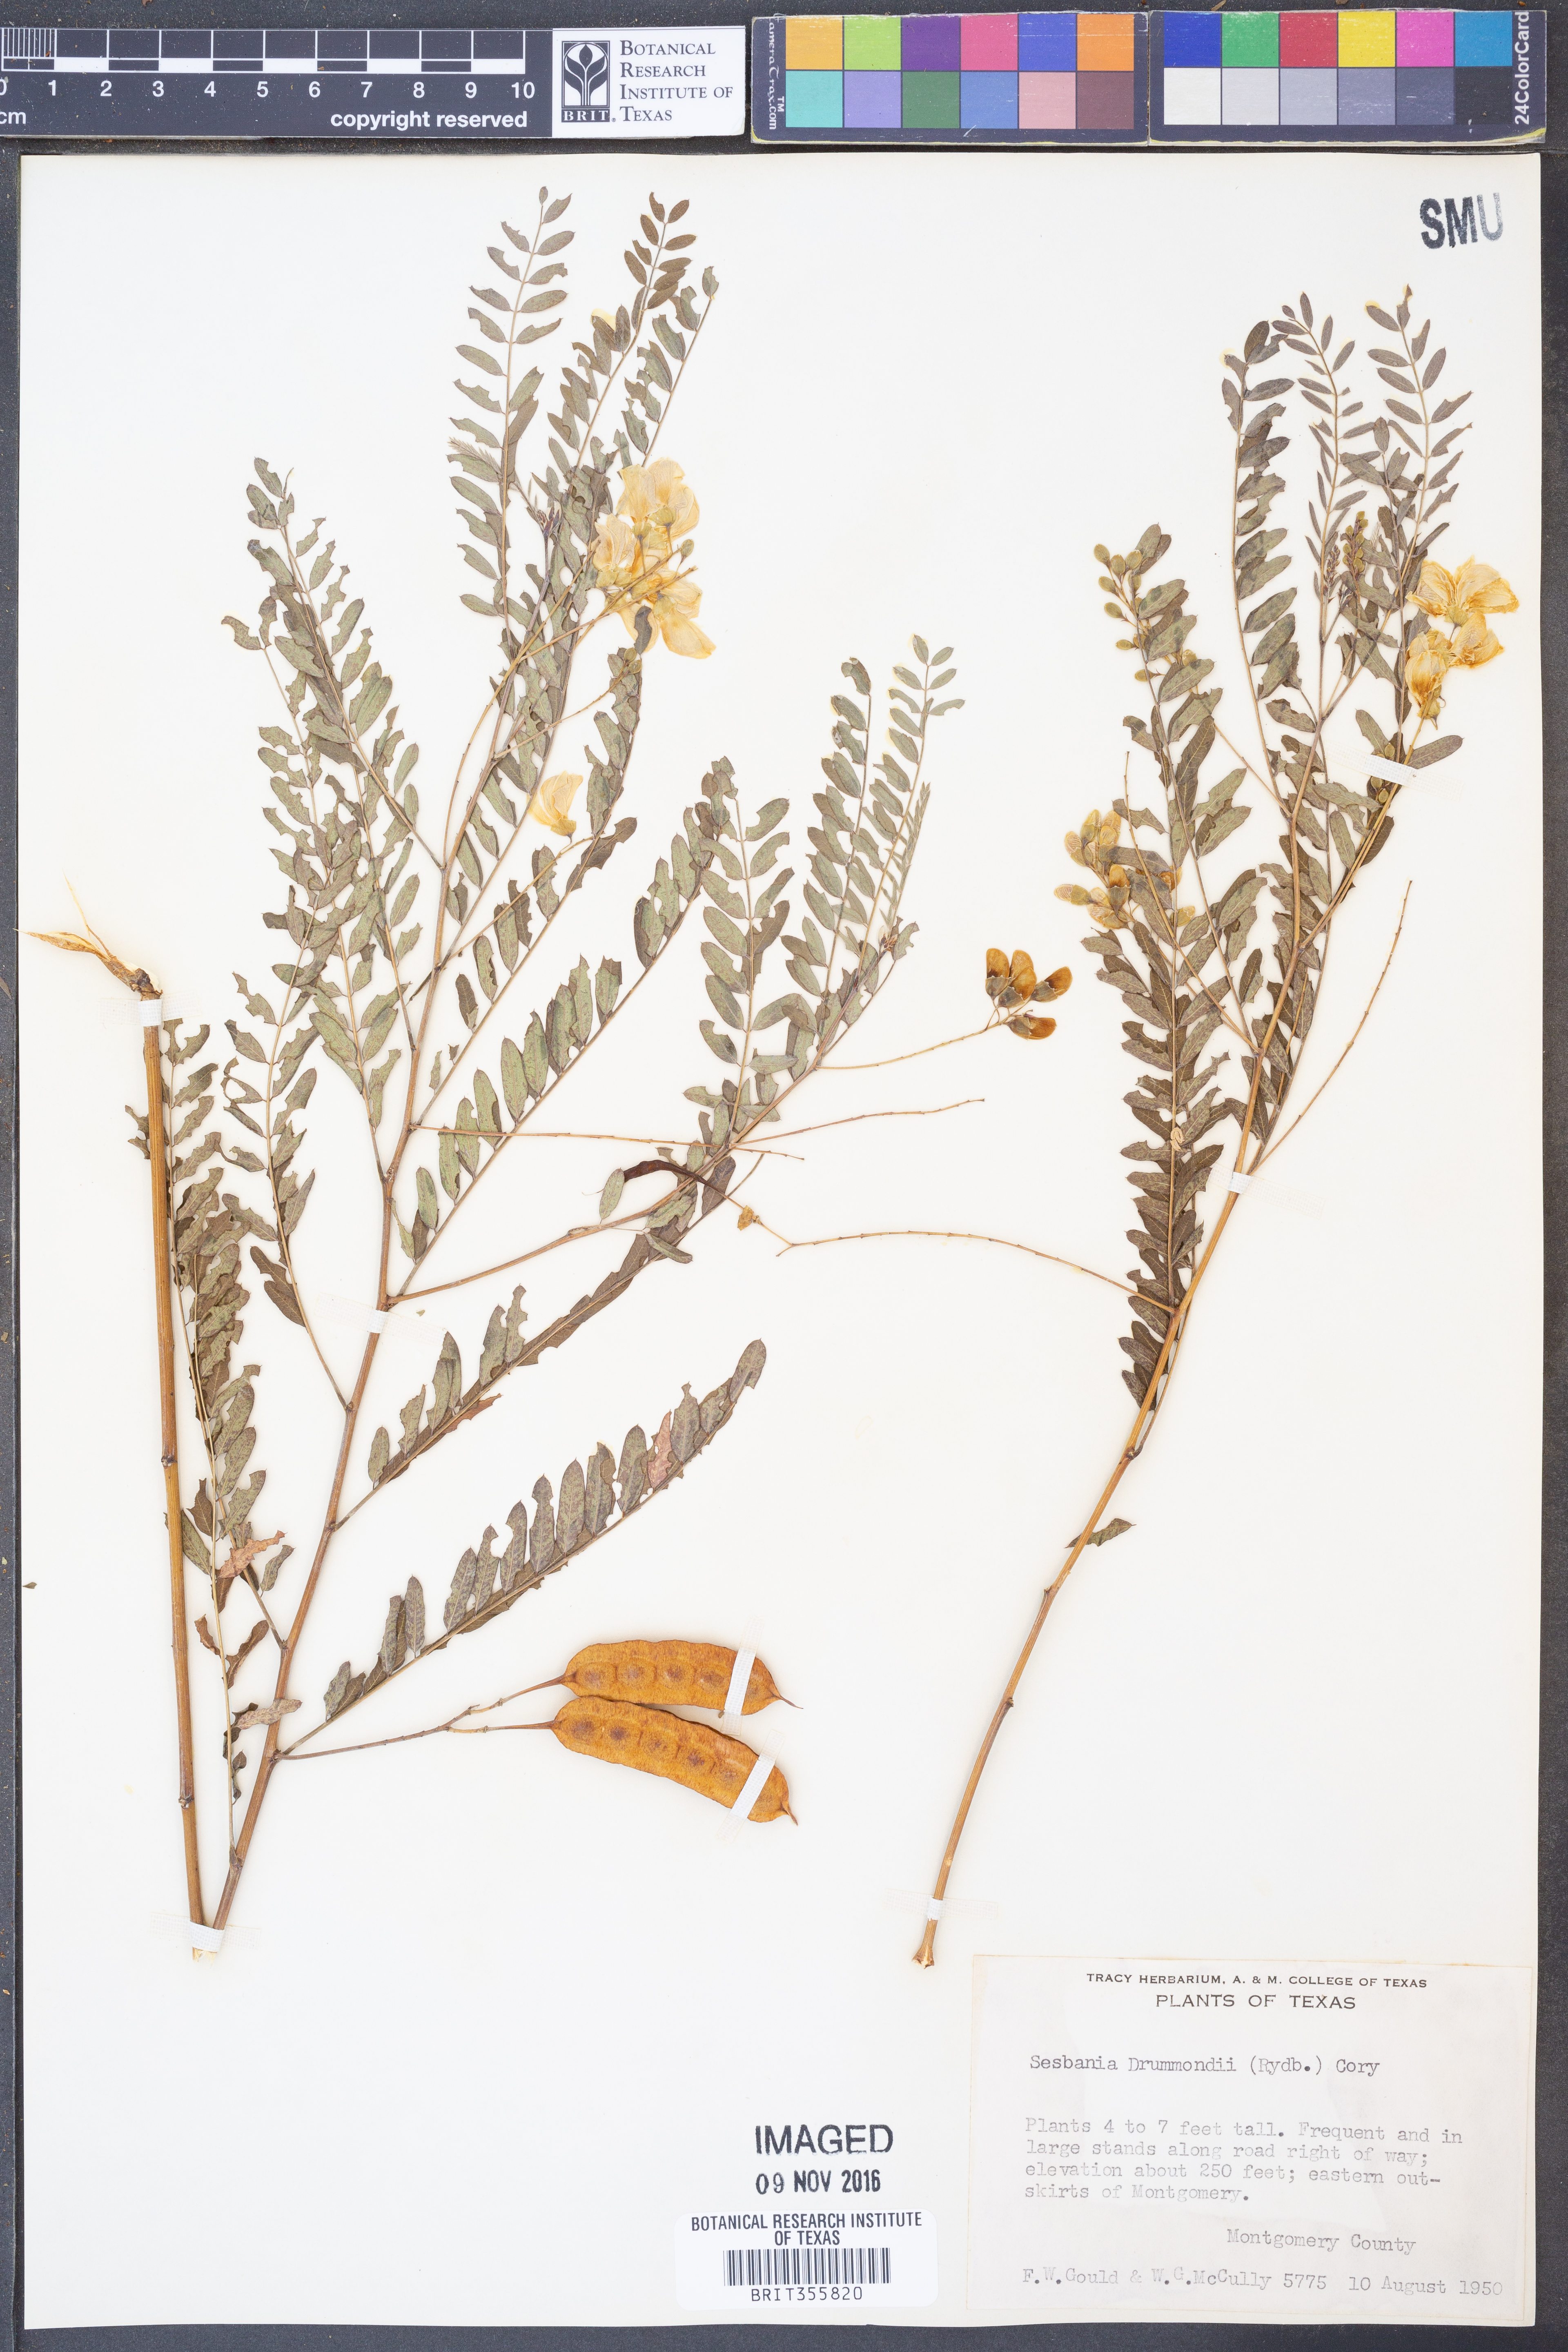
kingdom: Plantae
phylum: Tracheophyta
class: Magnoliopsida
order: Fabales
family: Fabaceae
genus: Sesbania
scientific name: Sesbania drummondii
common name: Poison-bean
